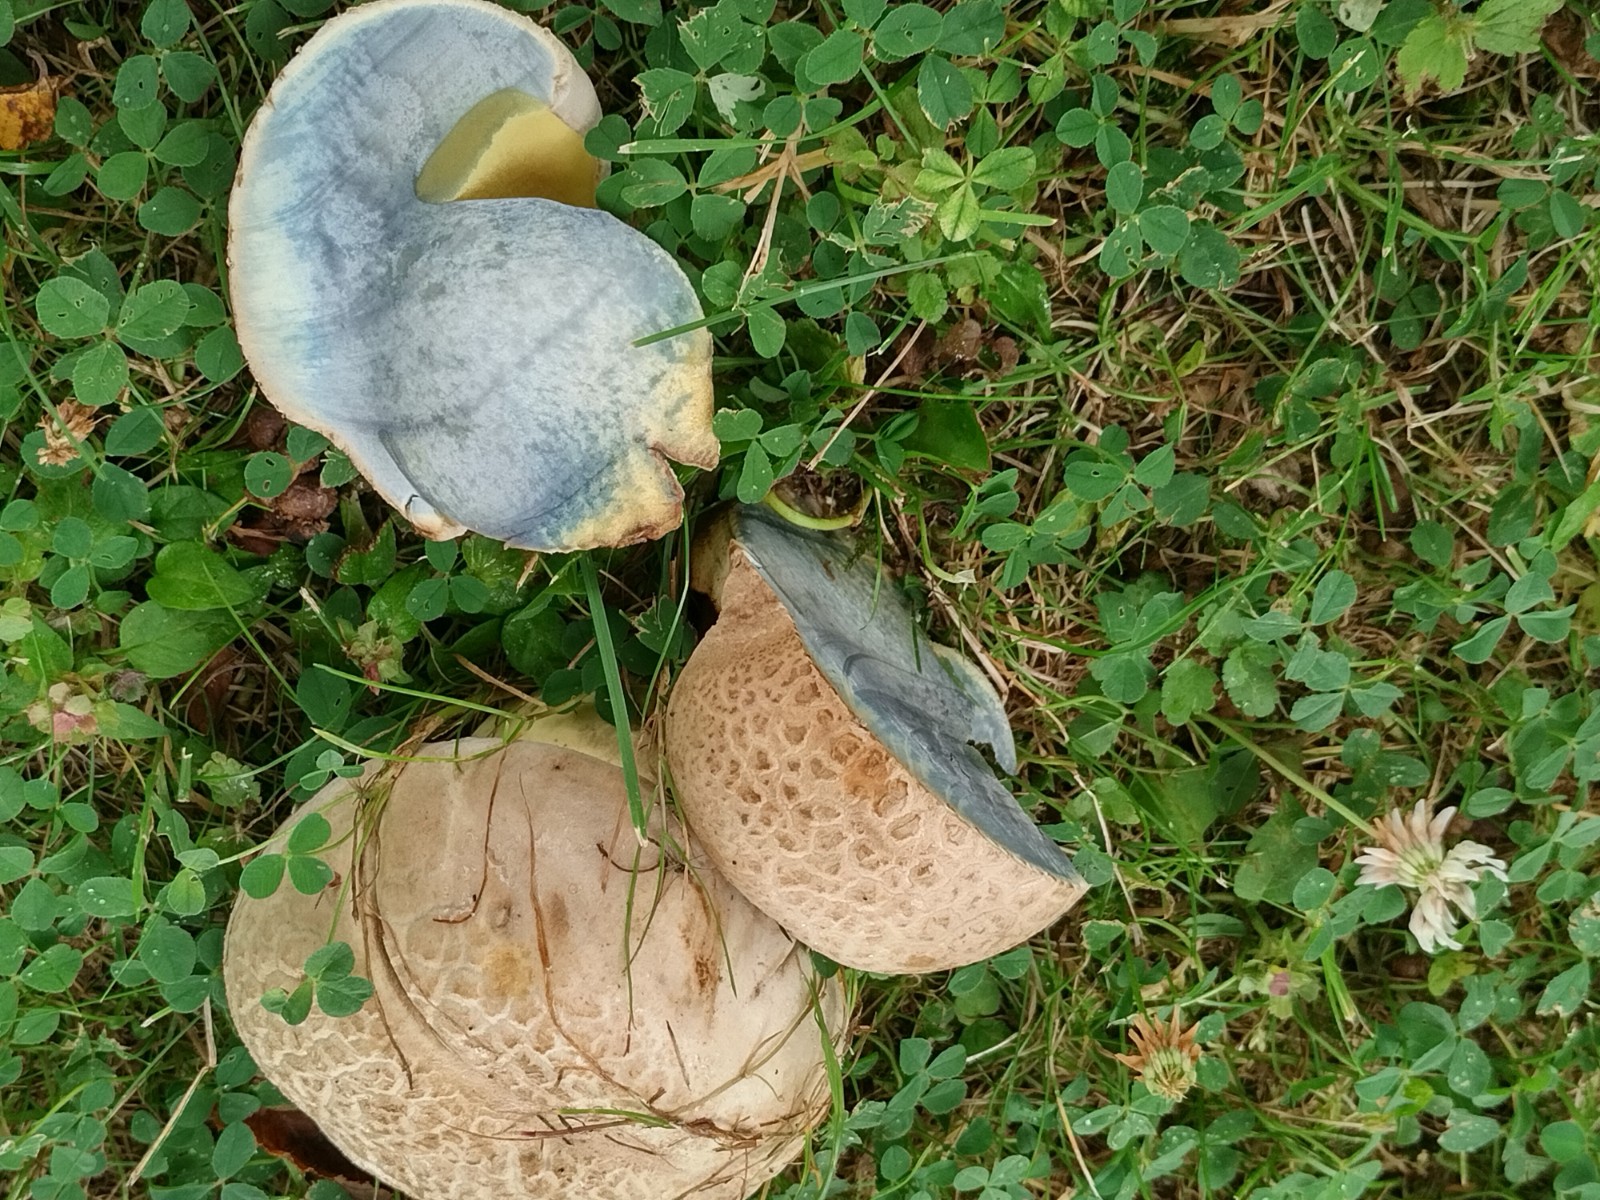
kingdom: Fungi
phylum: Basidiomycota
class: Agaricomycetes
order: Boletales
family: Boletaceae
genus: Caloboletus
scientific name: Caloboletus radicans
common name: rod-rørhat
